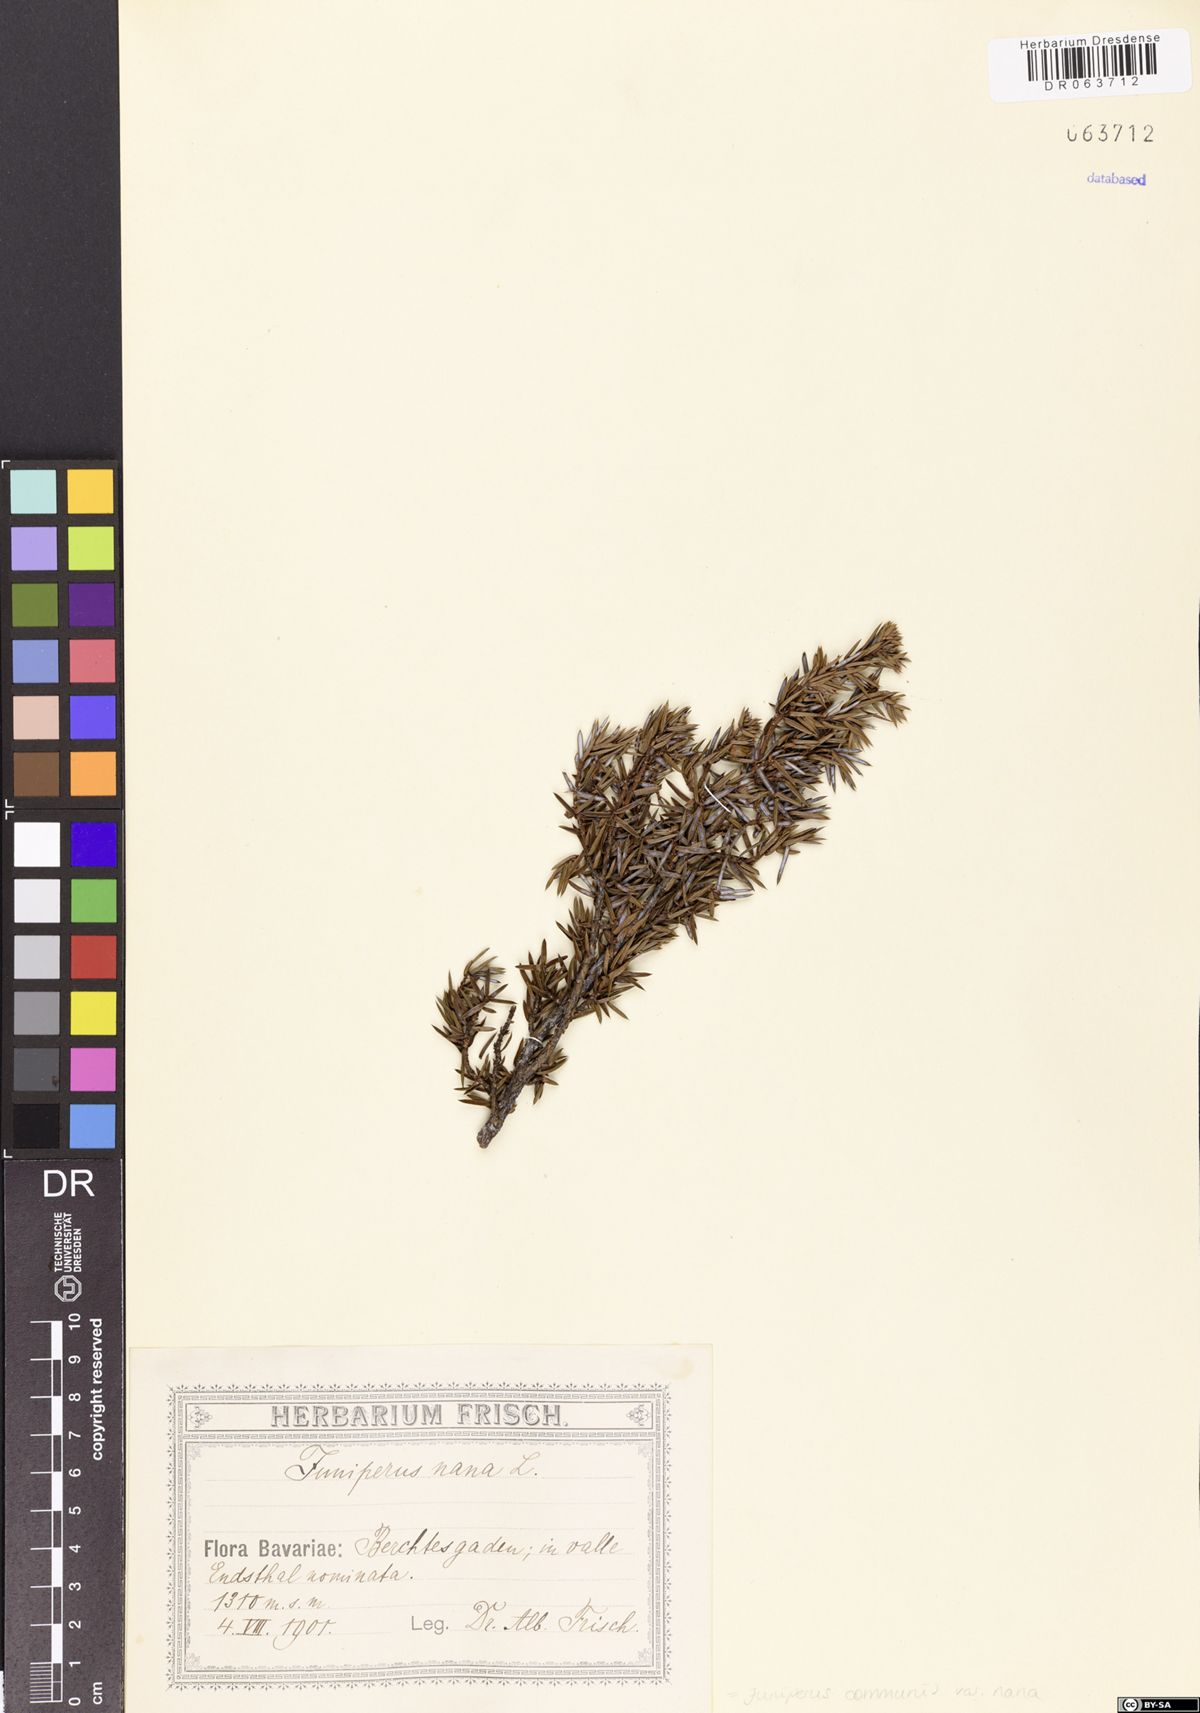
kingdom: Plantae
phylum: Tracheophyta
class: Pinopsida
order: Pinales
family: Cupressaceae
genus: Juniperus
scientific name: Juniperus communis
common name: Common juniper
